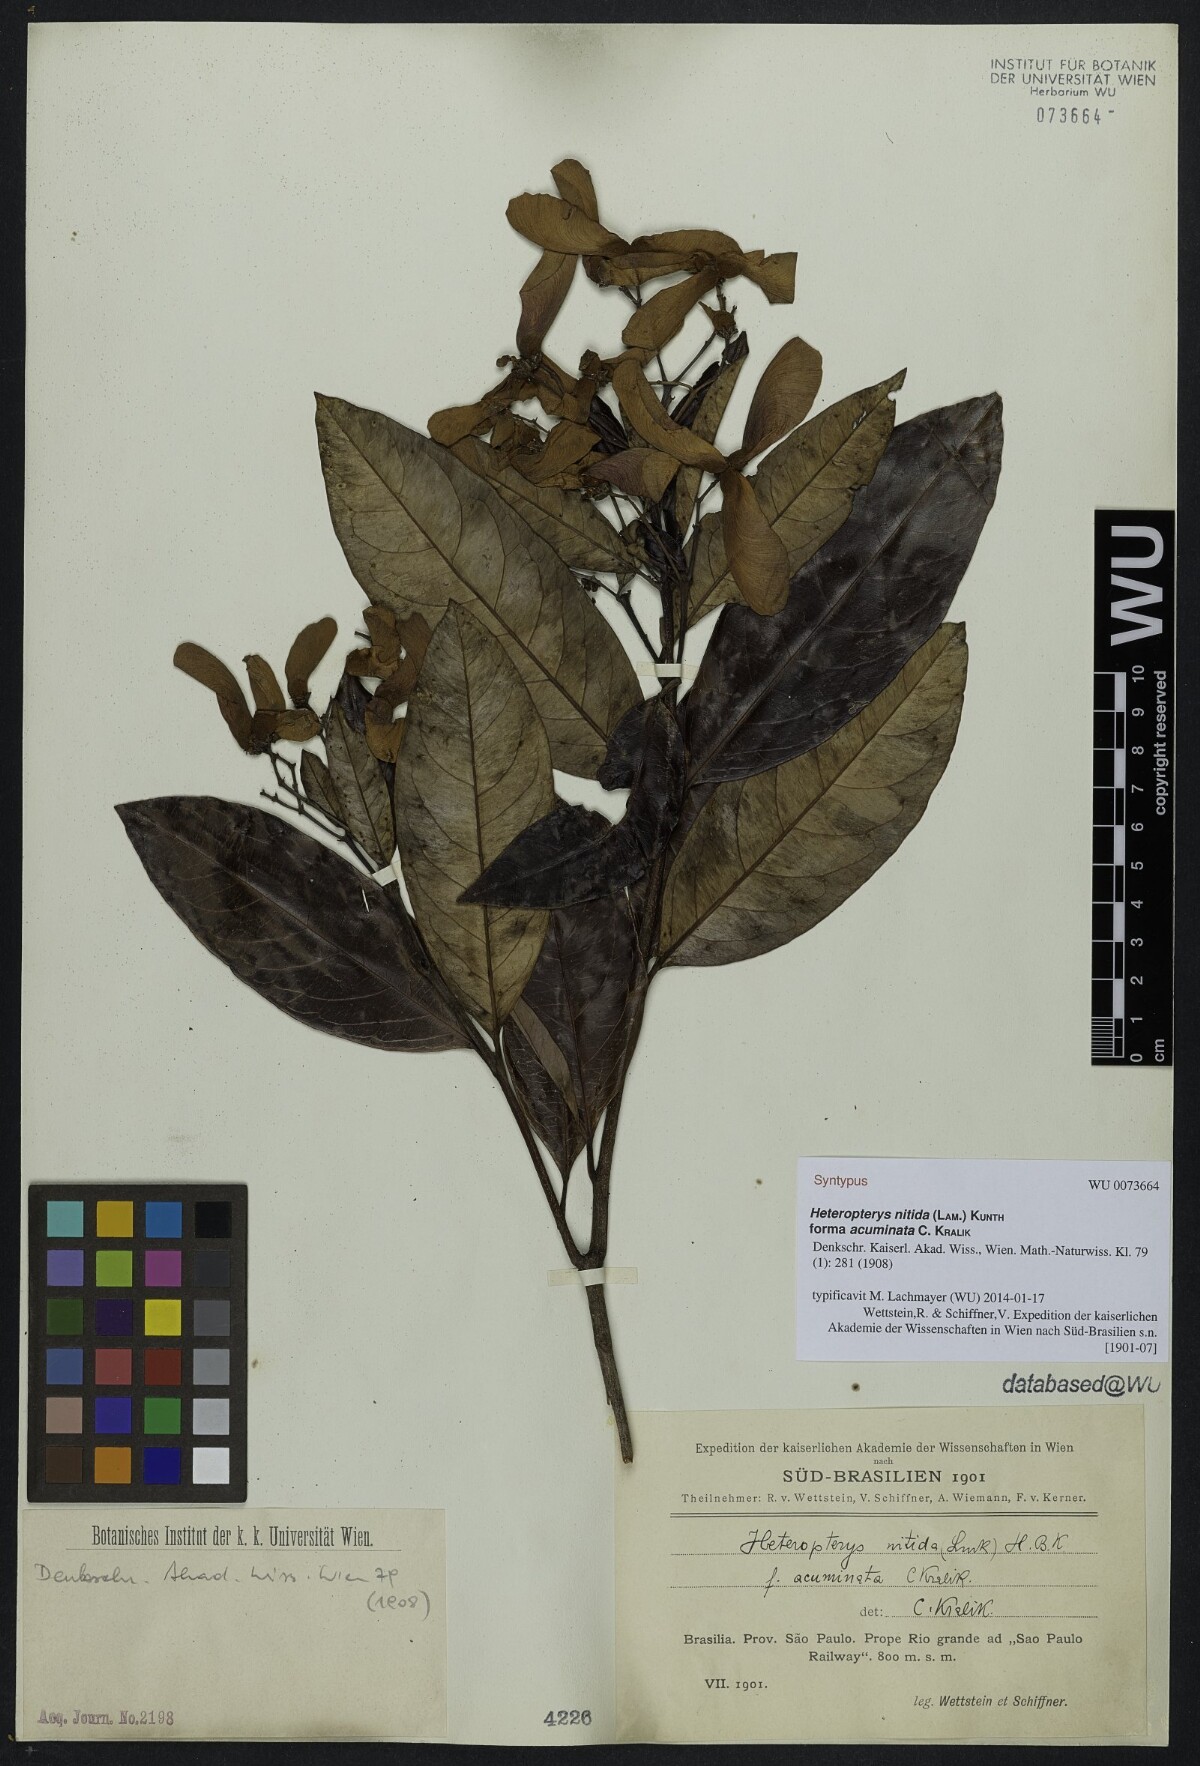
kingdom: Plantae
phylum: Tracheophyta
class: Magnoliopsida
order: Malpighiales
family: Malpighiaceae
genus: Heteropterys
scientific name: Heteropterys nitida
